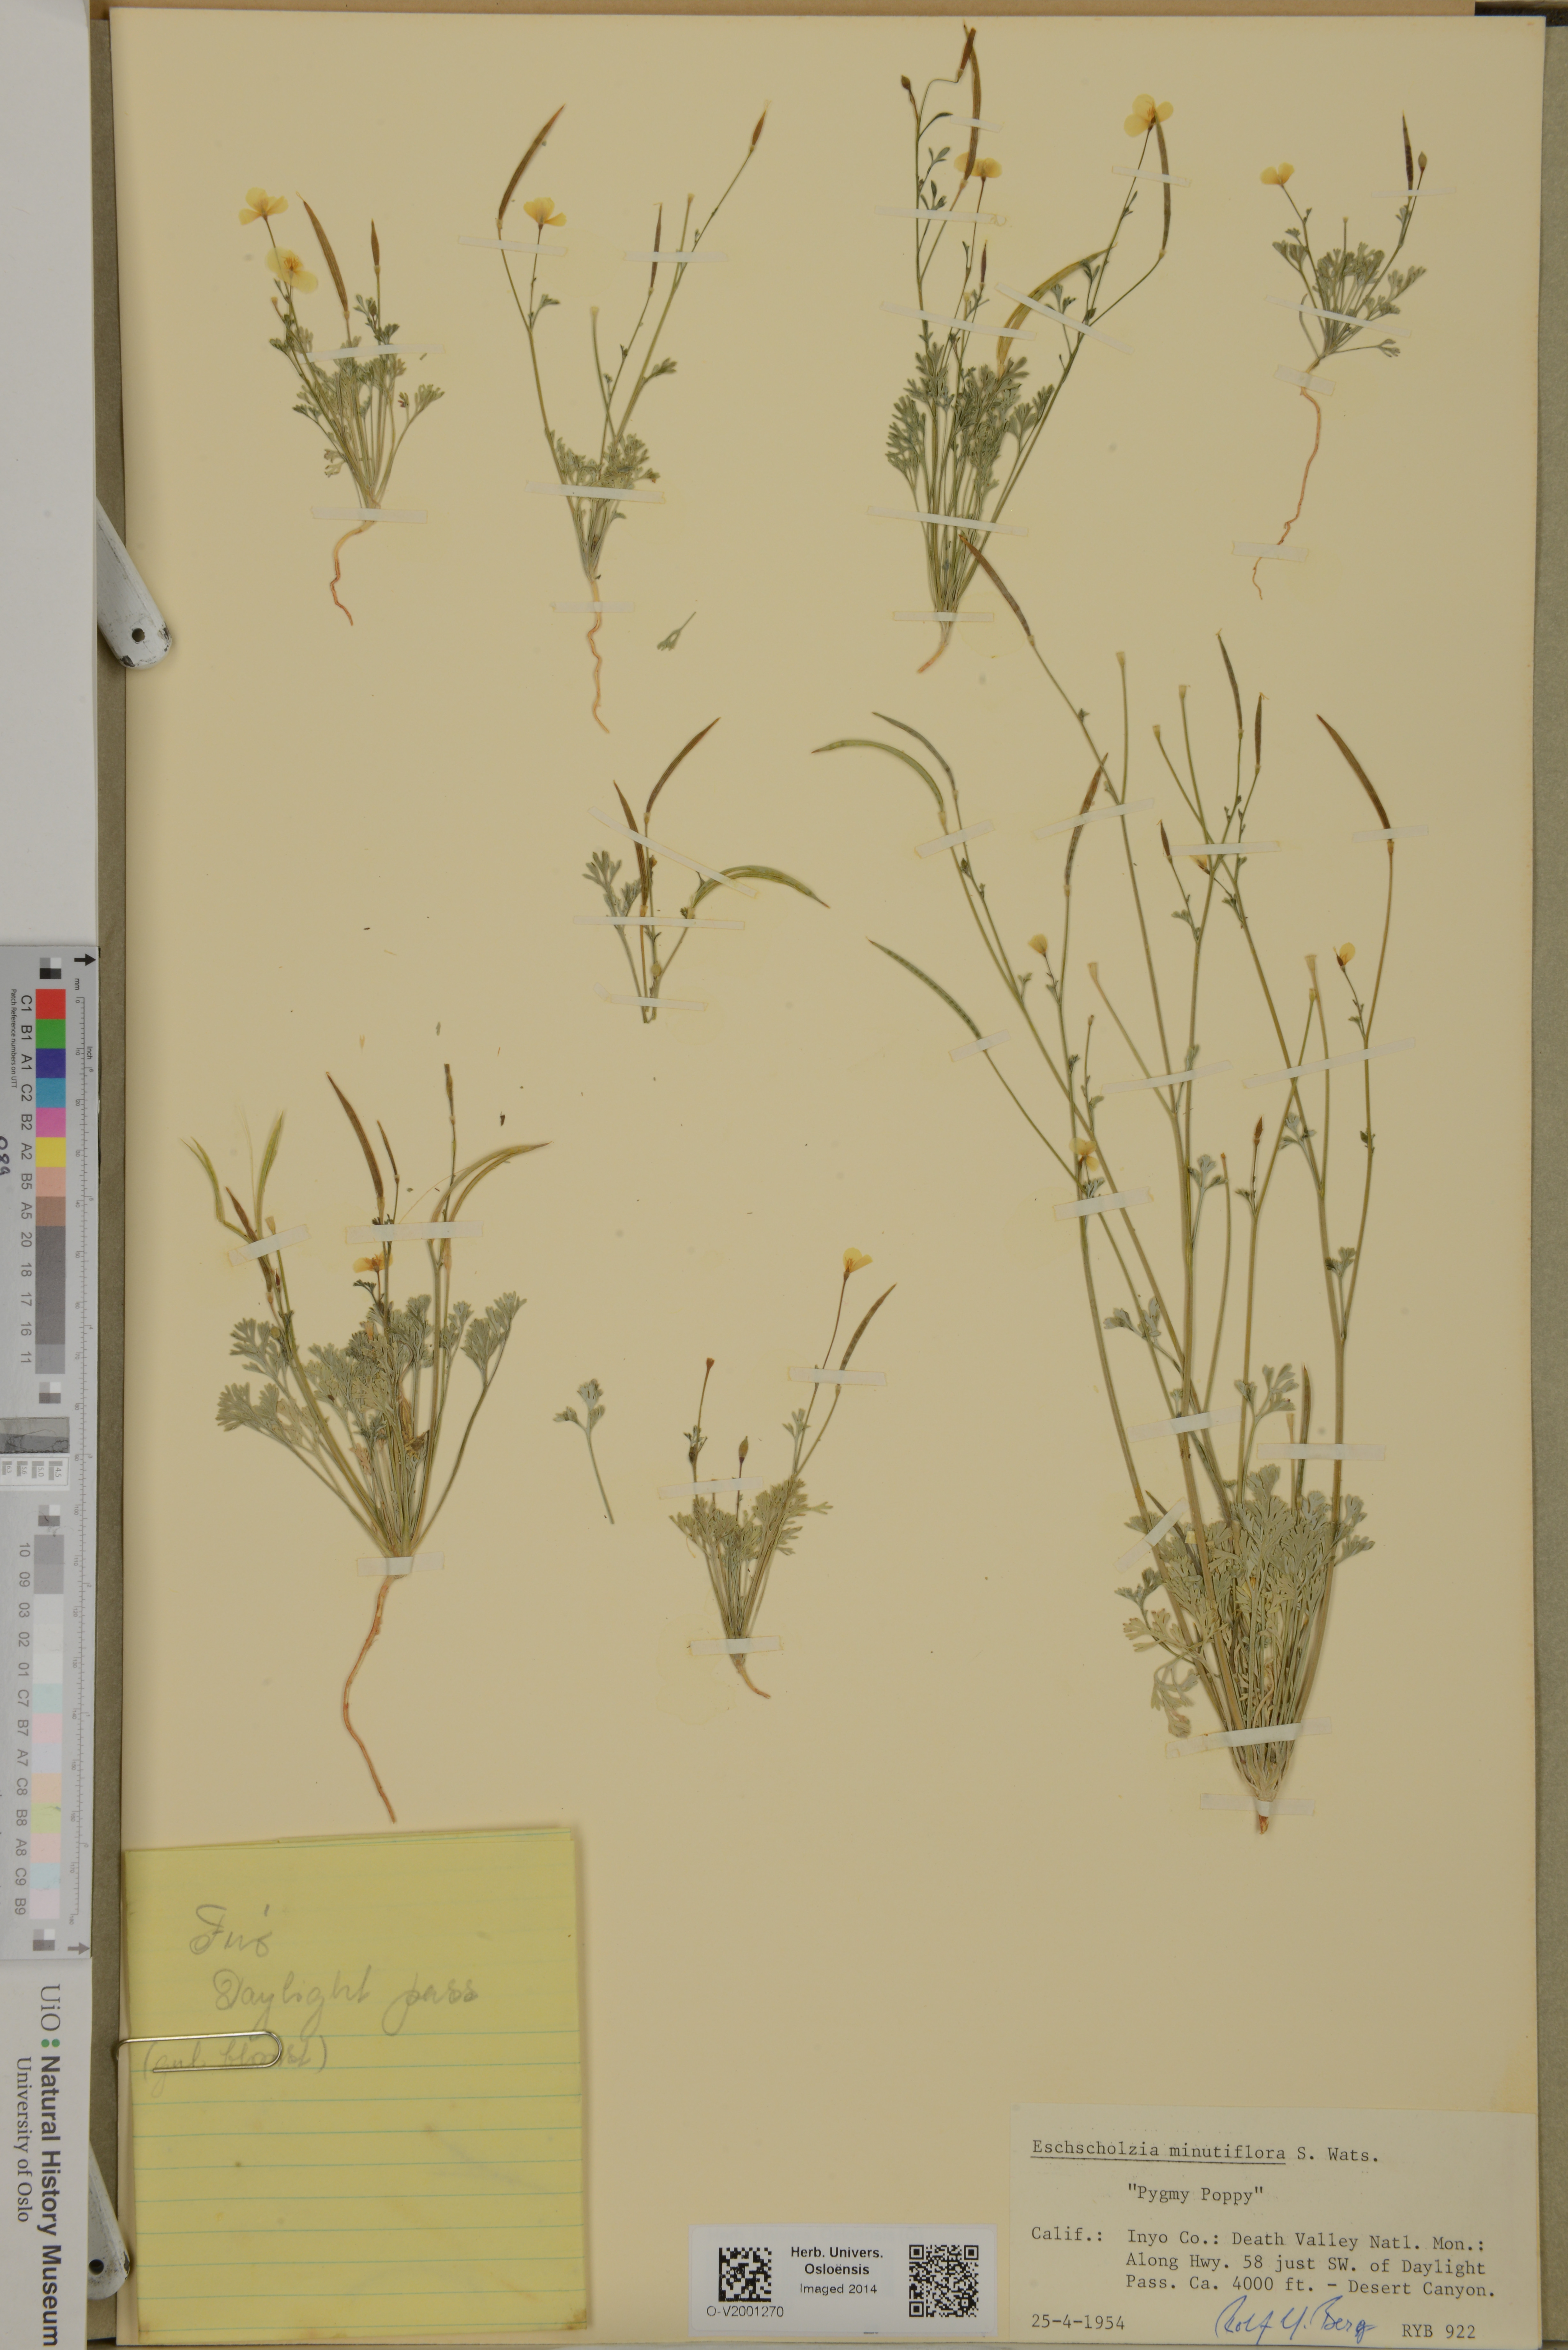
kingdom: Plantae
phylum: Tracheophyta
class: Magnoliopsida
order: Ranunculales
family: Papaveraceae
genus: Eschscholzia
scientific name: Eschscholzia minutiflora
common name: Small-flower california-poppy
